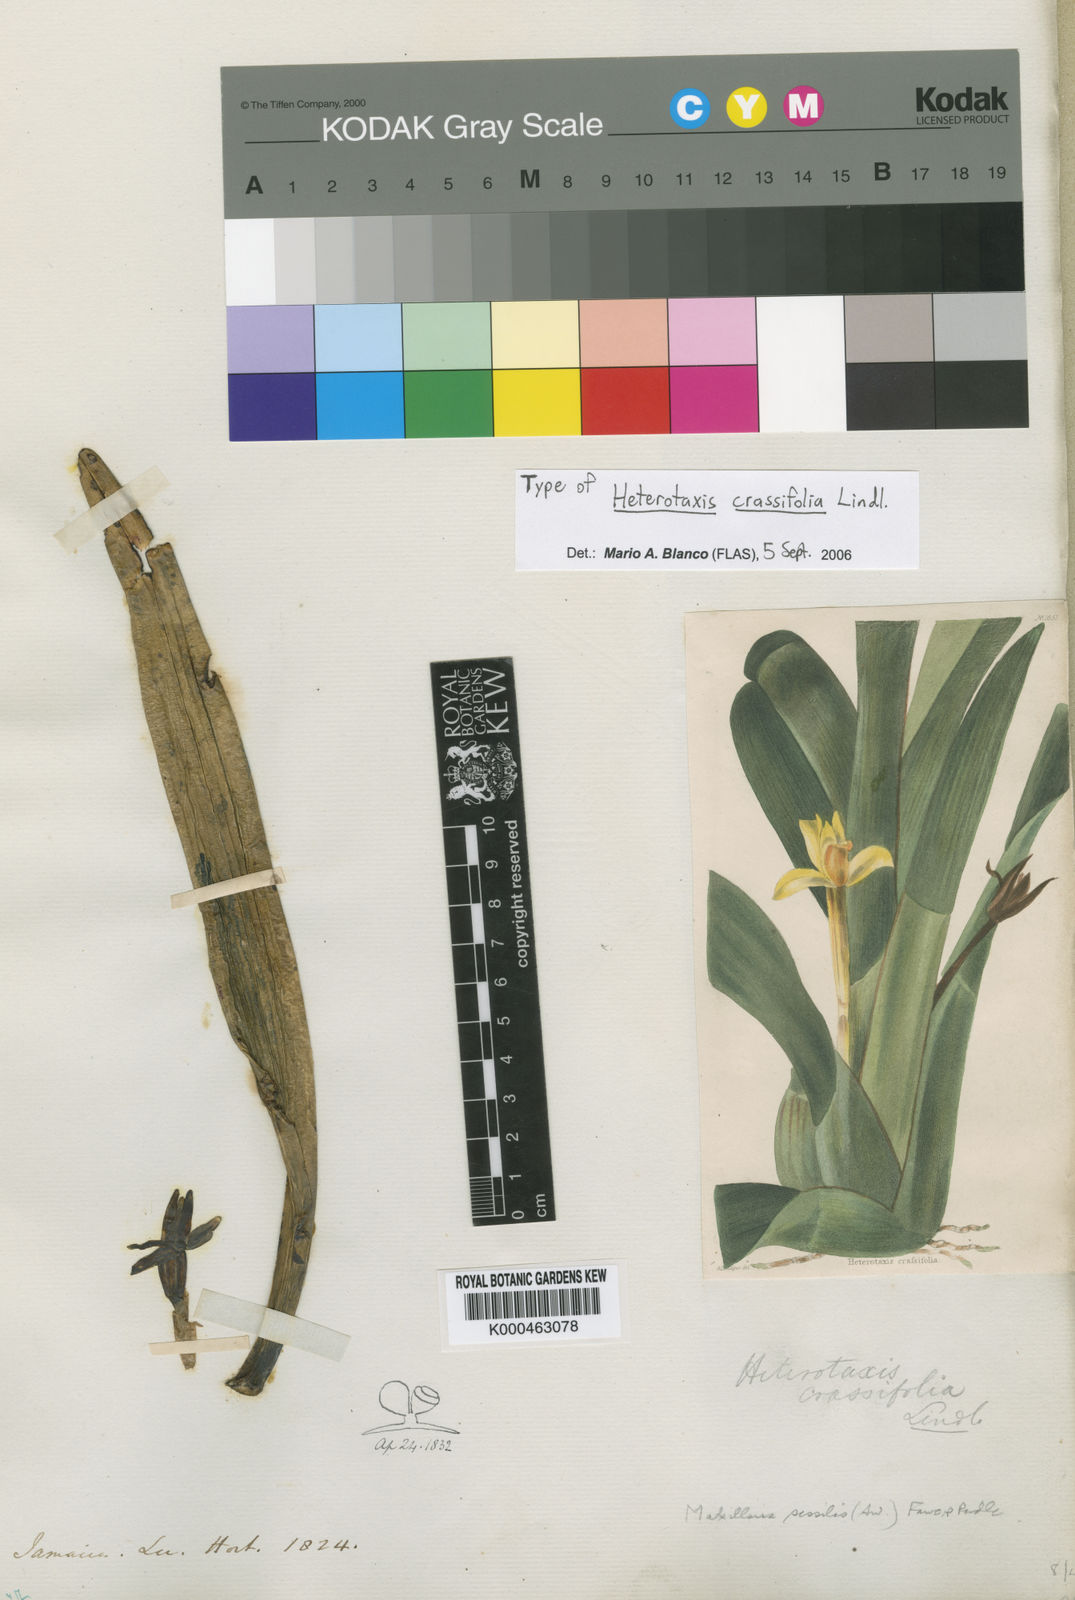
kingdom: Plantae
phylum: Tracheophyta
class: Liliopsida
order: Asparagales
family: Orchidaceae
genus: Maxillaria
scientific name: Maxillaria crassifolia
